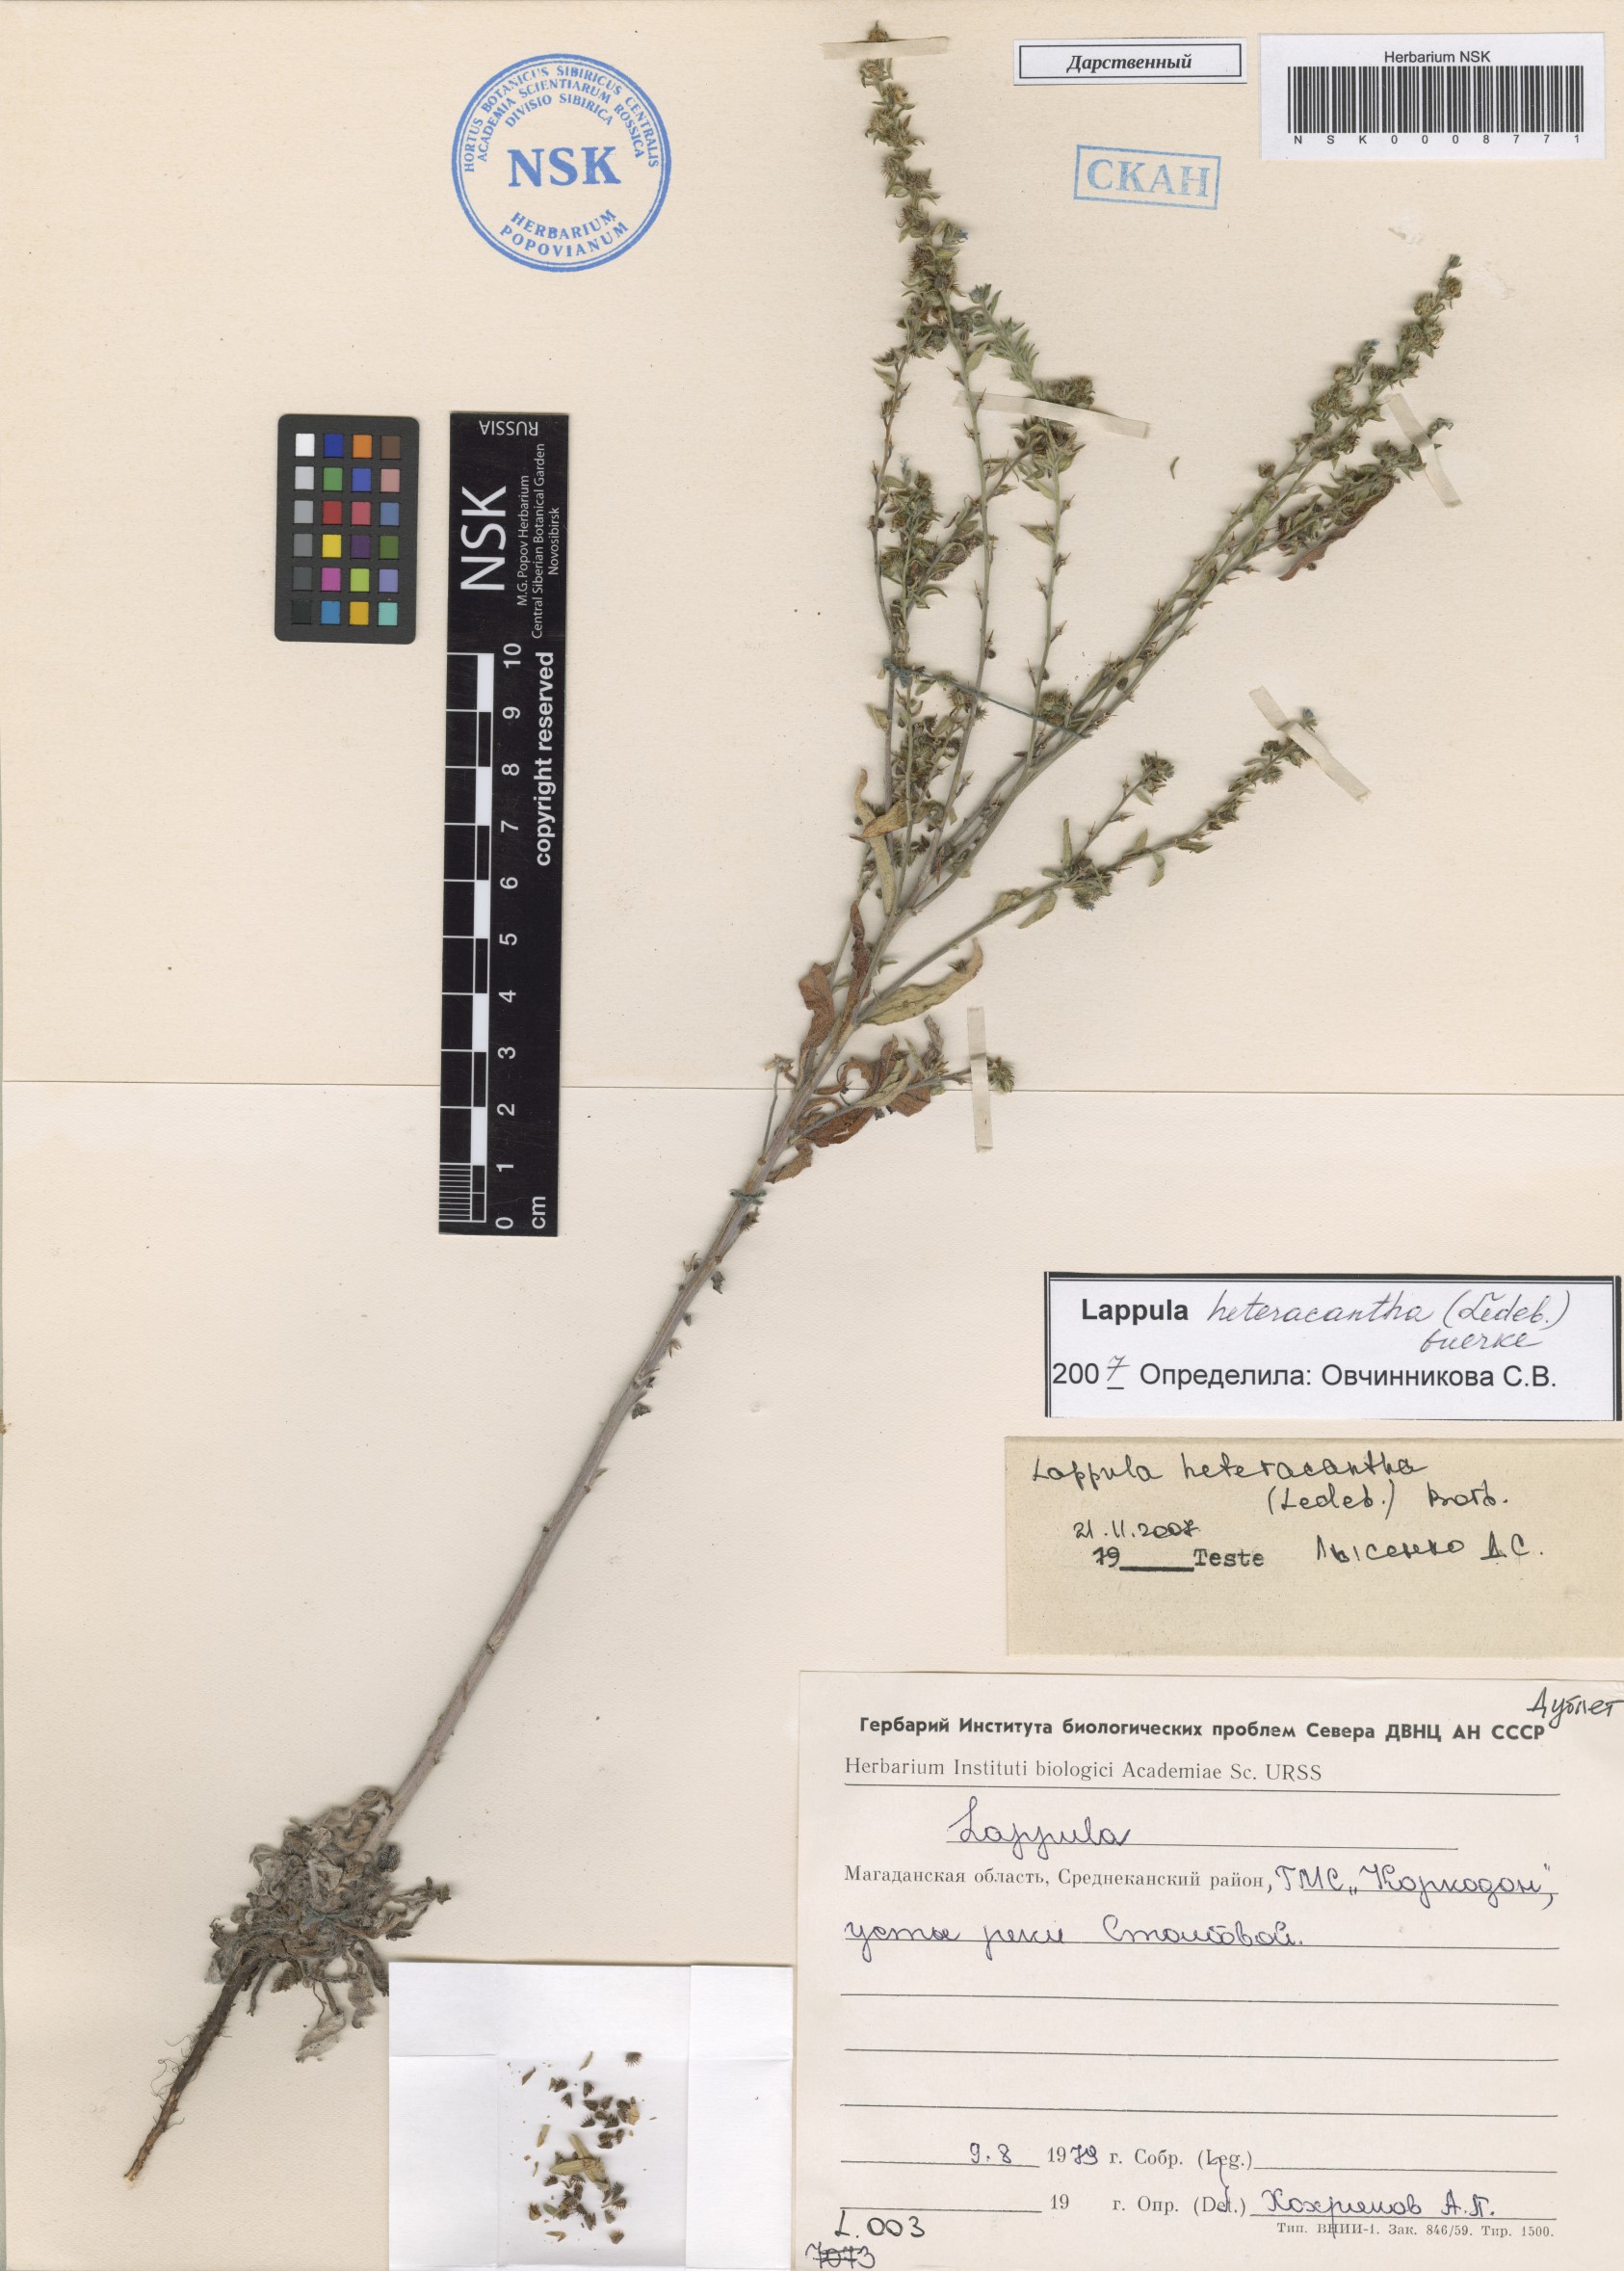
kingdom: Plantae
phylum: Tracheophyta
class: Magnoliopsida
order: Boraginales
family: Boraginaceae
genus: Lappula
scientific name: Lappula heteracantha
